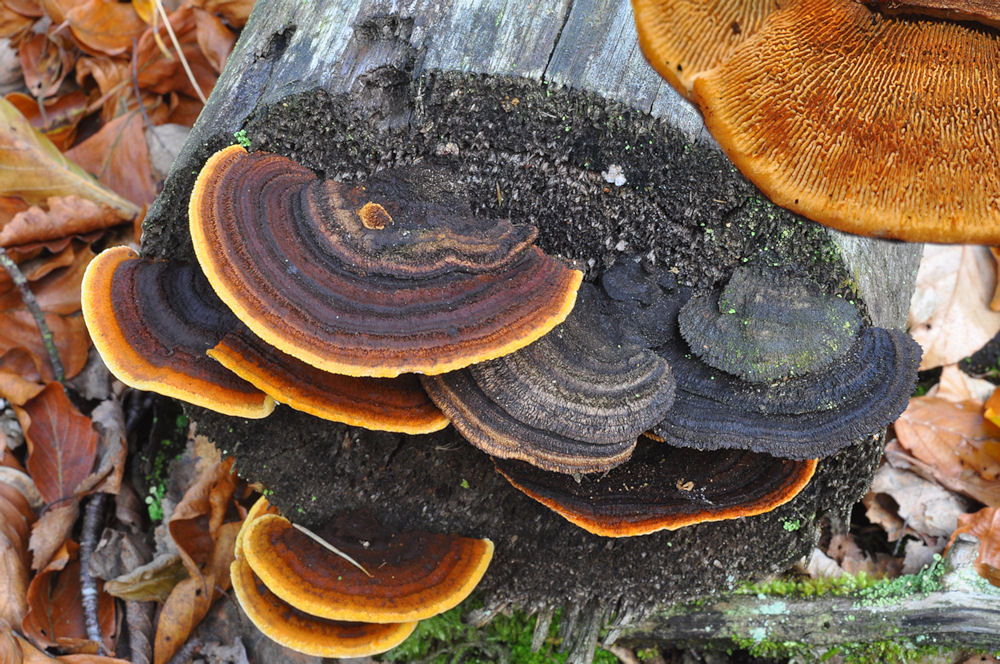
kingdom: Fungi
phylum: Basidiomycota
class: Agaricomycetes
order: Gloeophyllales
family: Gloeophyllaceae
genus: Gloeophyllum
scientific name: Gloeophyllum sepiarium
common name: fyrre-korkhat
